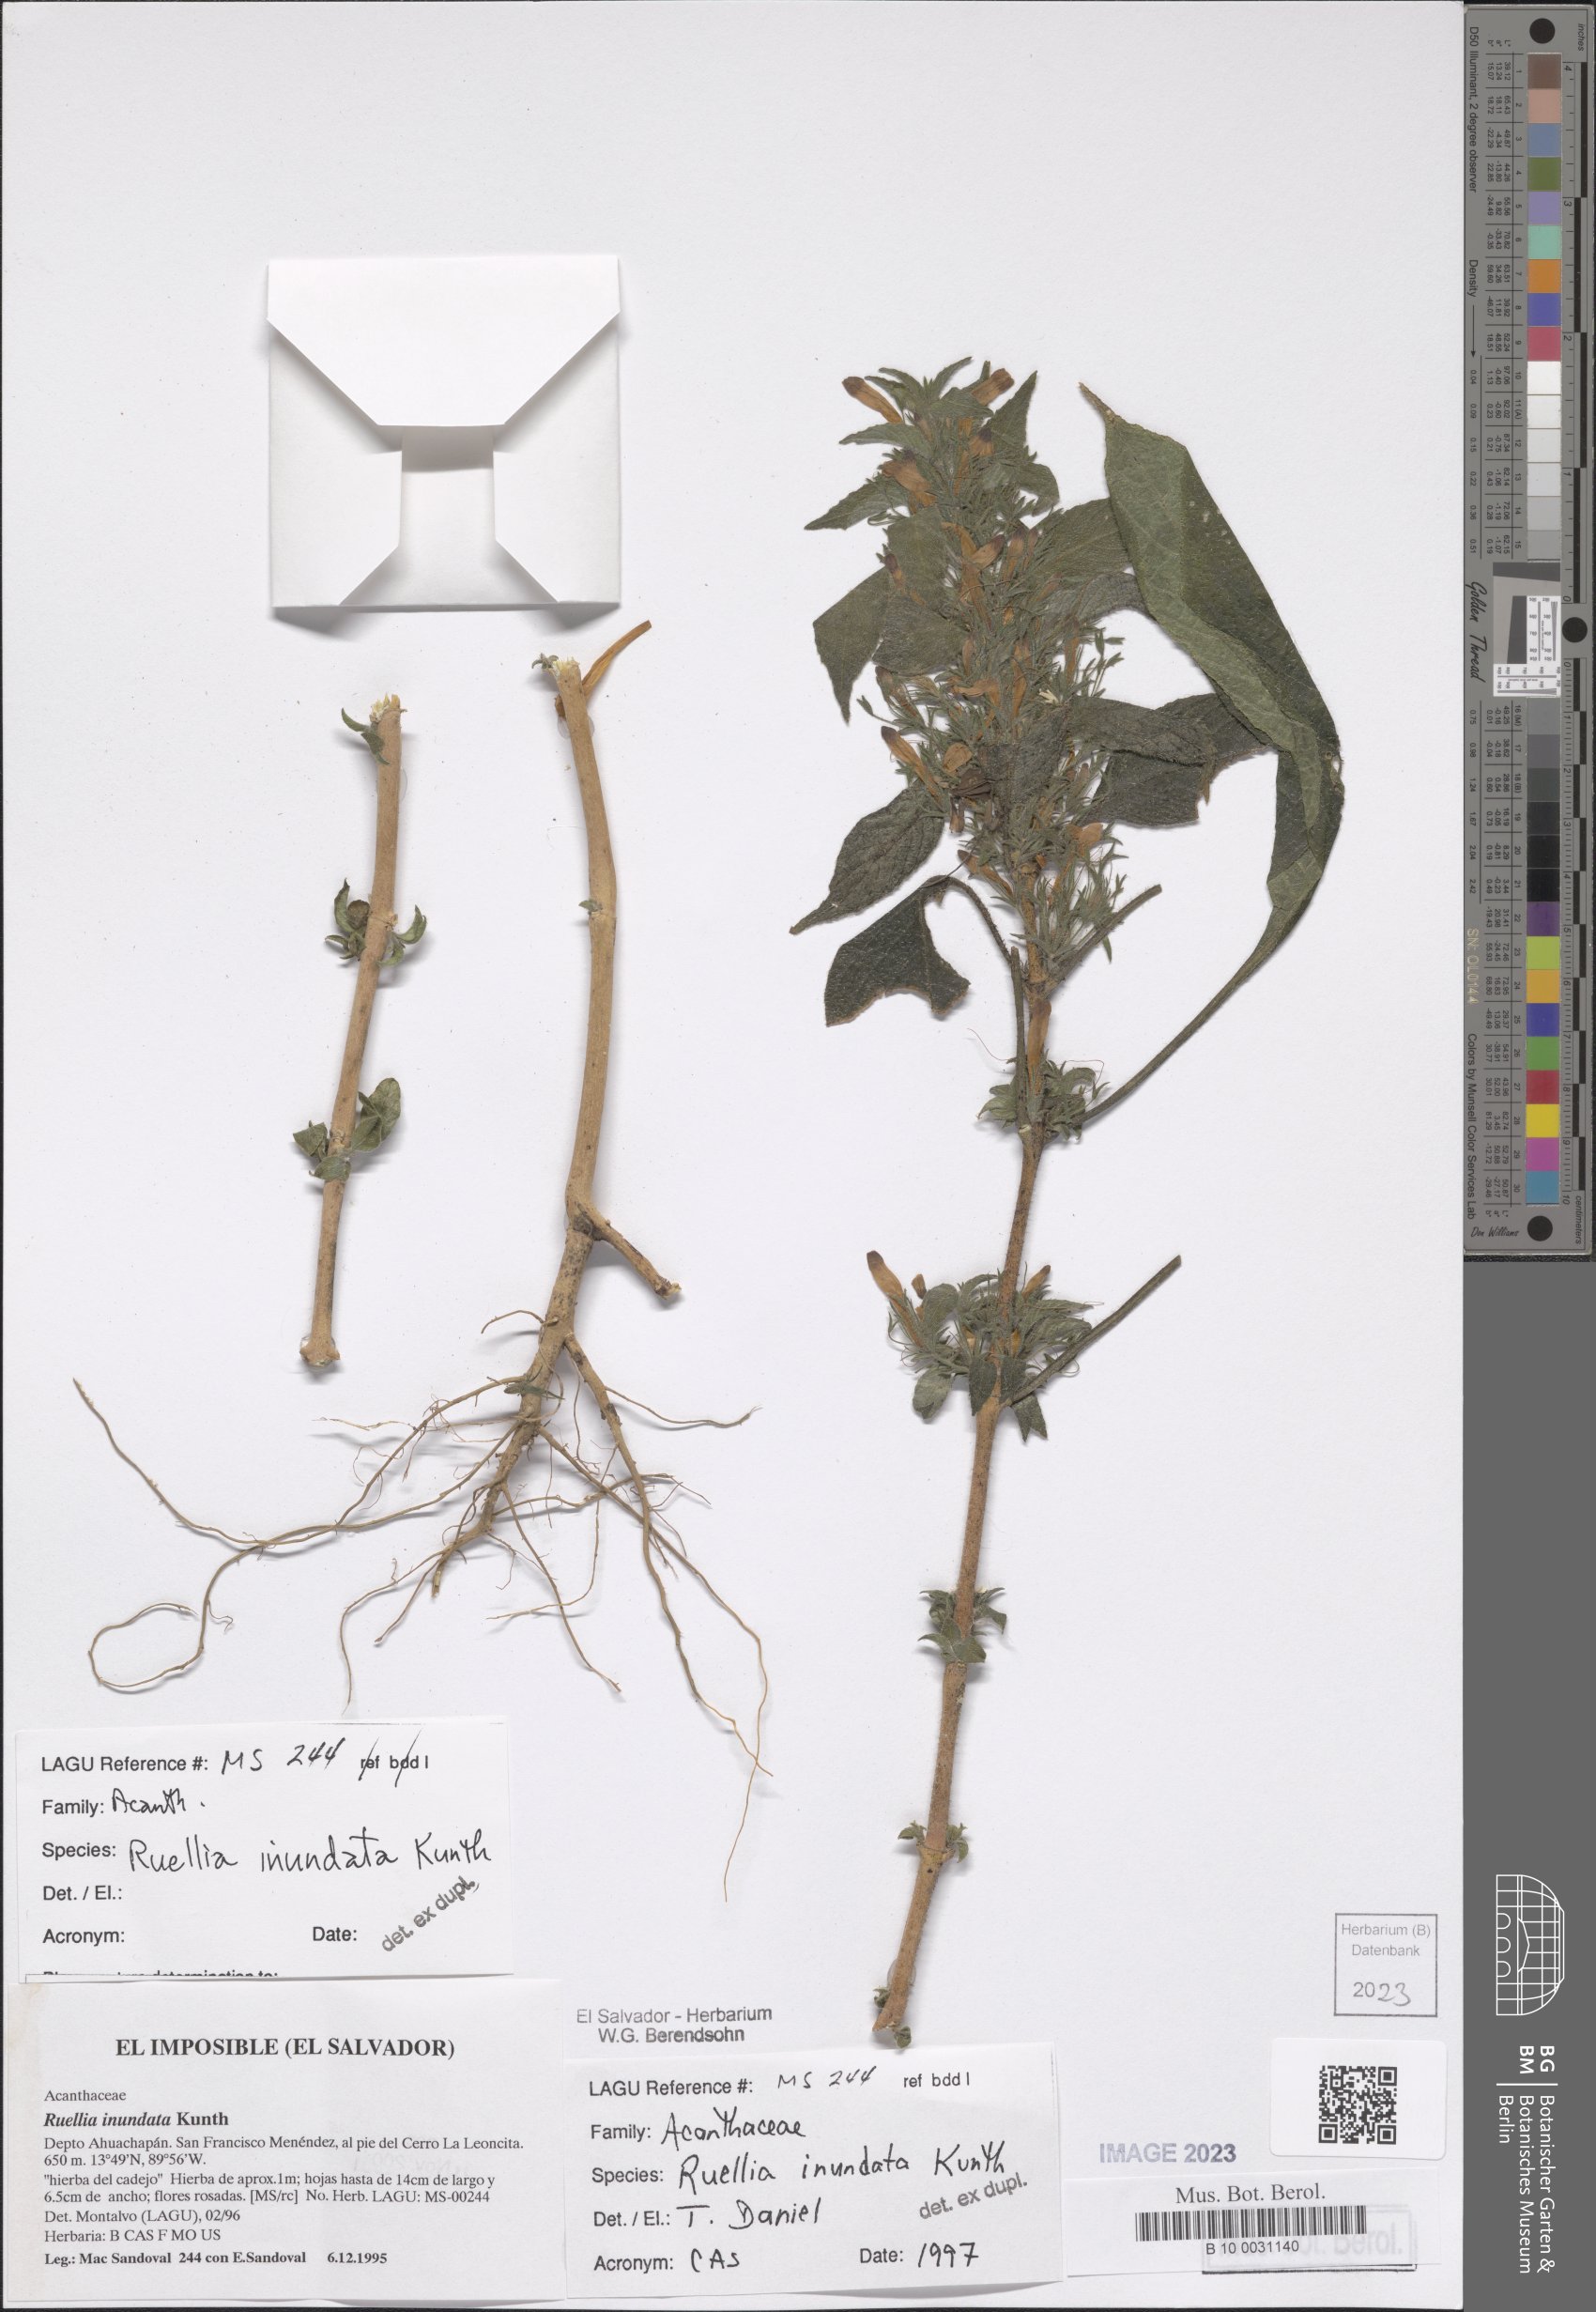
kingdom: Plantae
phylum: Tracheophyta
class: Magnoliopsida
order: Lamiales
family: Acanthaceae
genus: Ruellia
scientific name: Ruellia inundata
